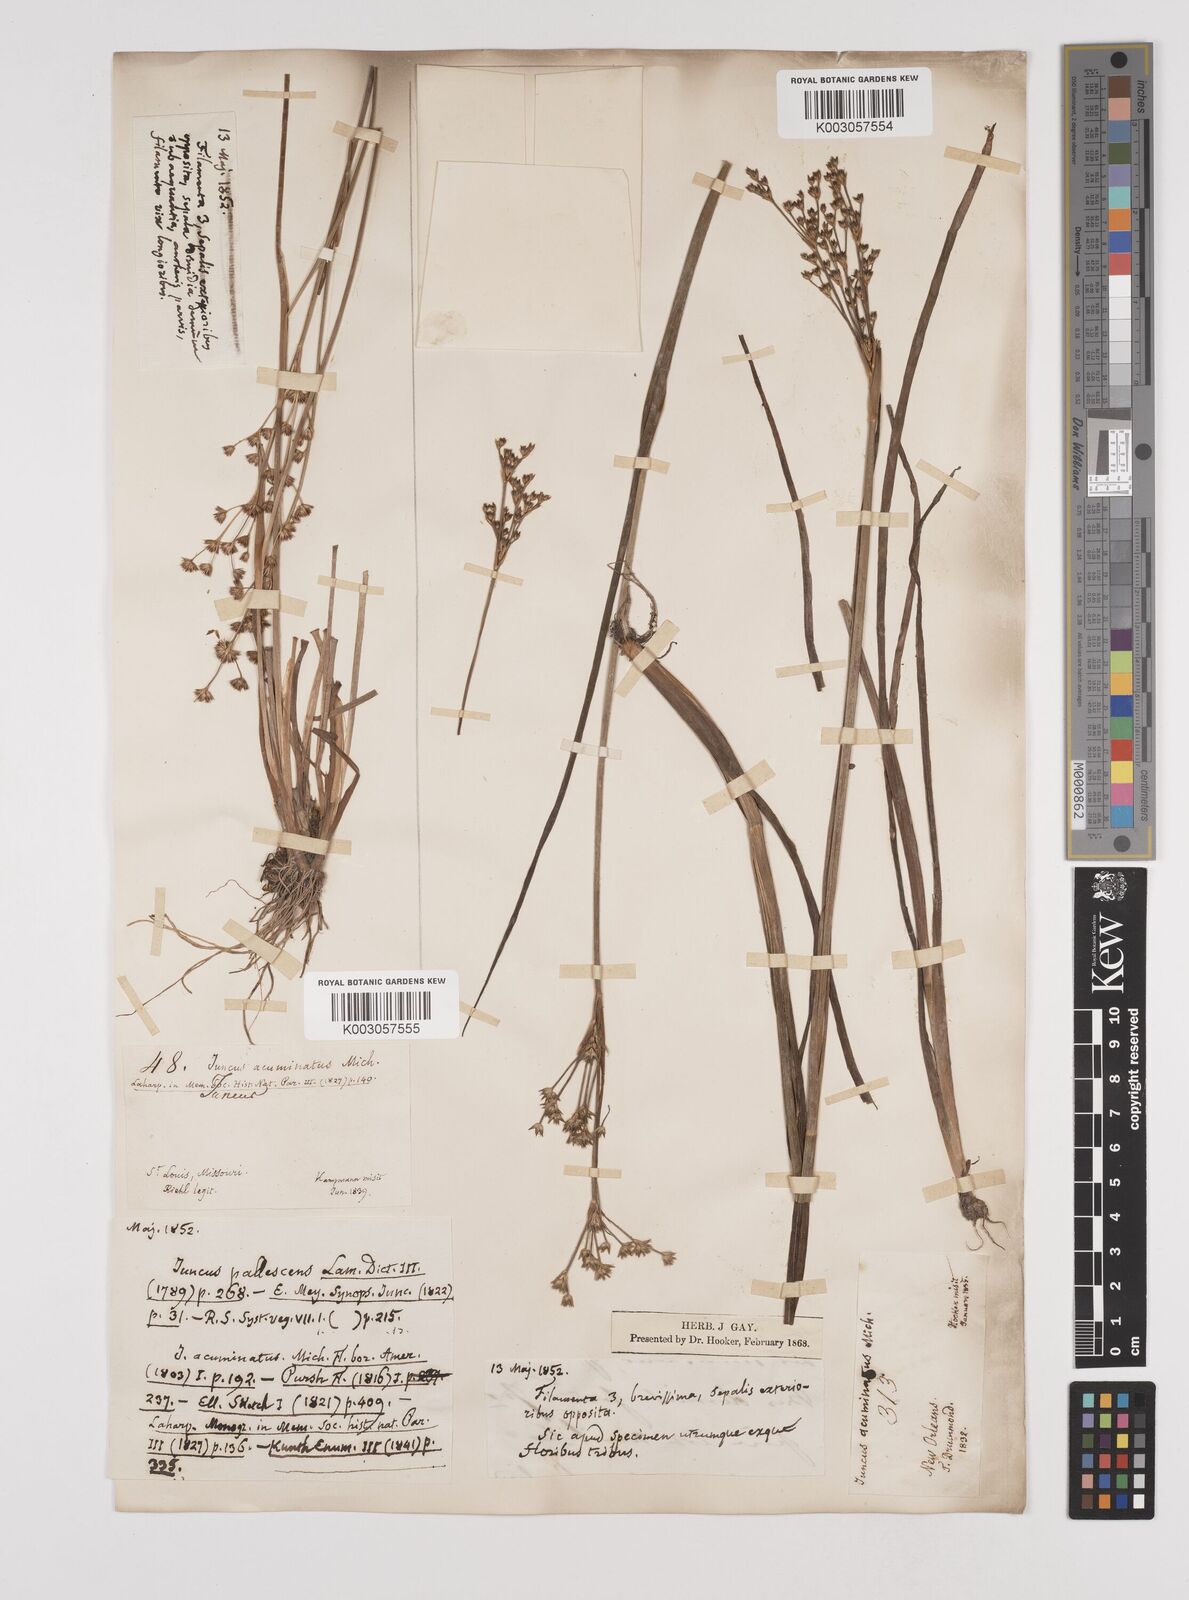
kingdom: Plantae
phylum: Tracheophyta
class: Liliopsida
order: Poales
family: Juncaceae
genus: Juncus
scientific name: Juncus acuminatus
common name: Knotty-leaved rush
